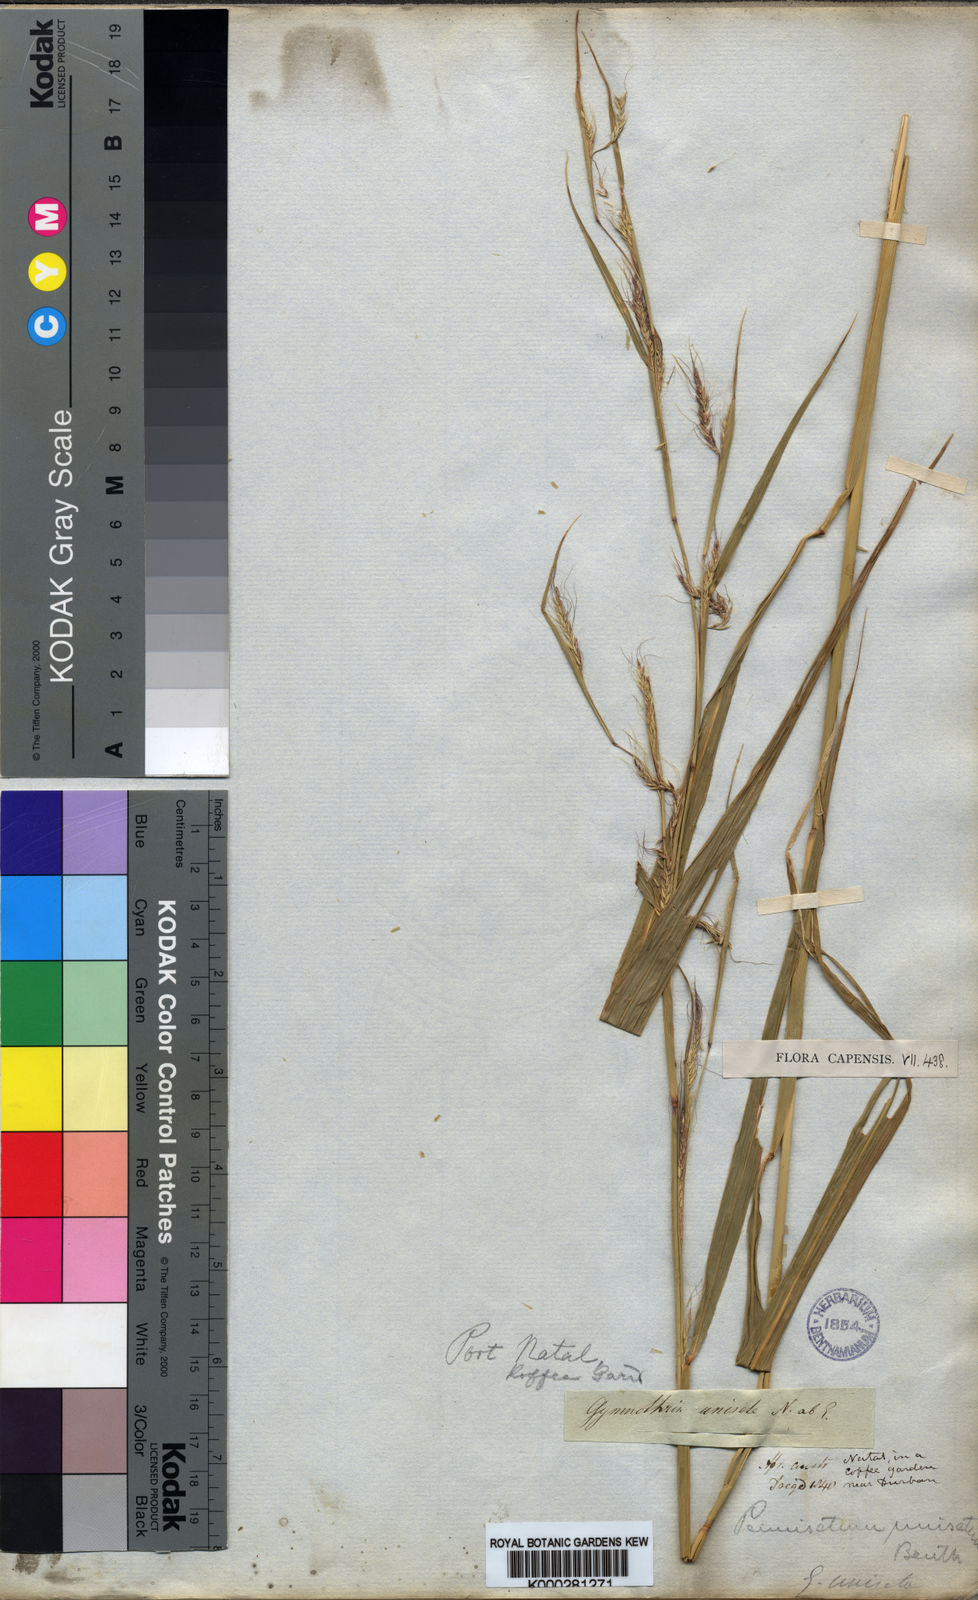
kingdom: Plantae
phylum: Tracheophyta
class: Liliopsida
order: Poales
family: Poaceae
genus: Cenchrus
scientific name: Cenchrus unisetus
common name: Natal grass
